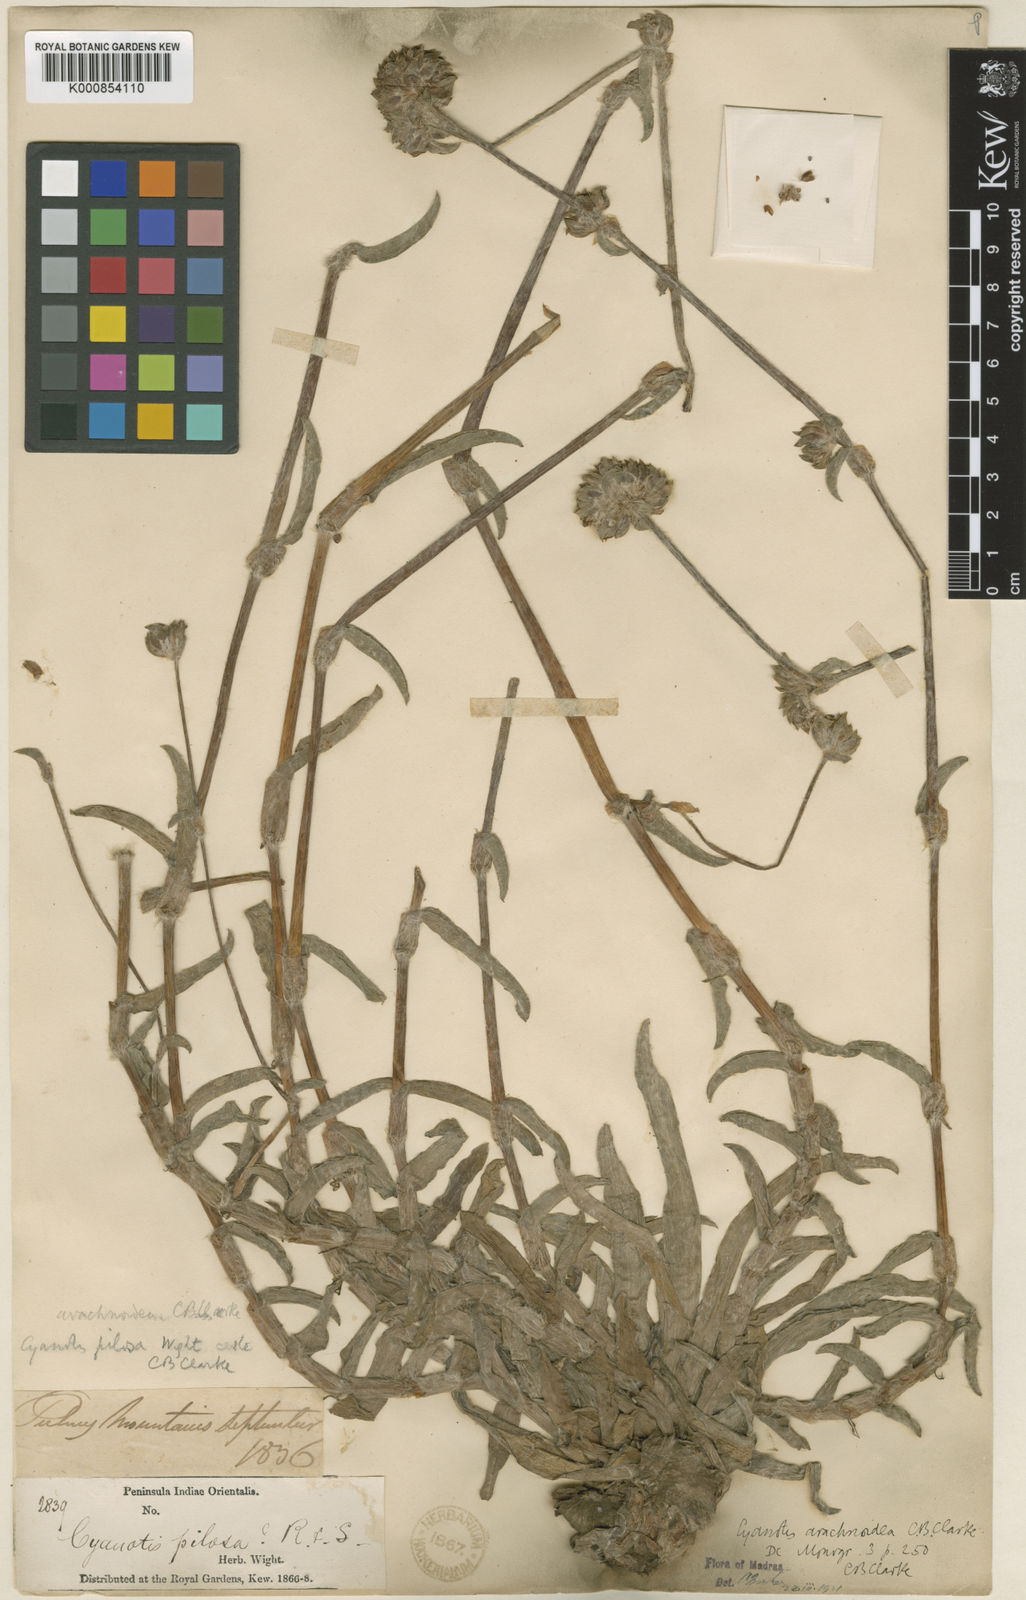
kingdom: Plantae
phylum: Tracheophyta
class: Liliopsida
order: Commelinales
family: Commelinaceae
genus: Cyanotis
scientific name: Cyanotis arachnoidea
